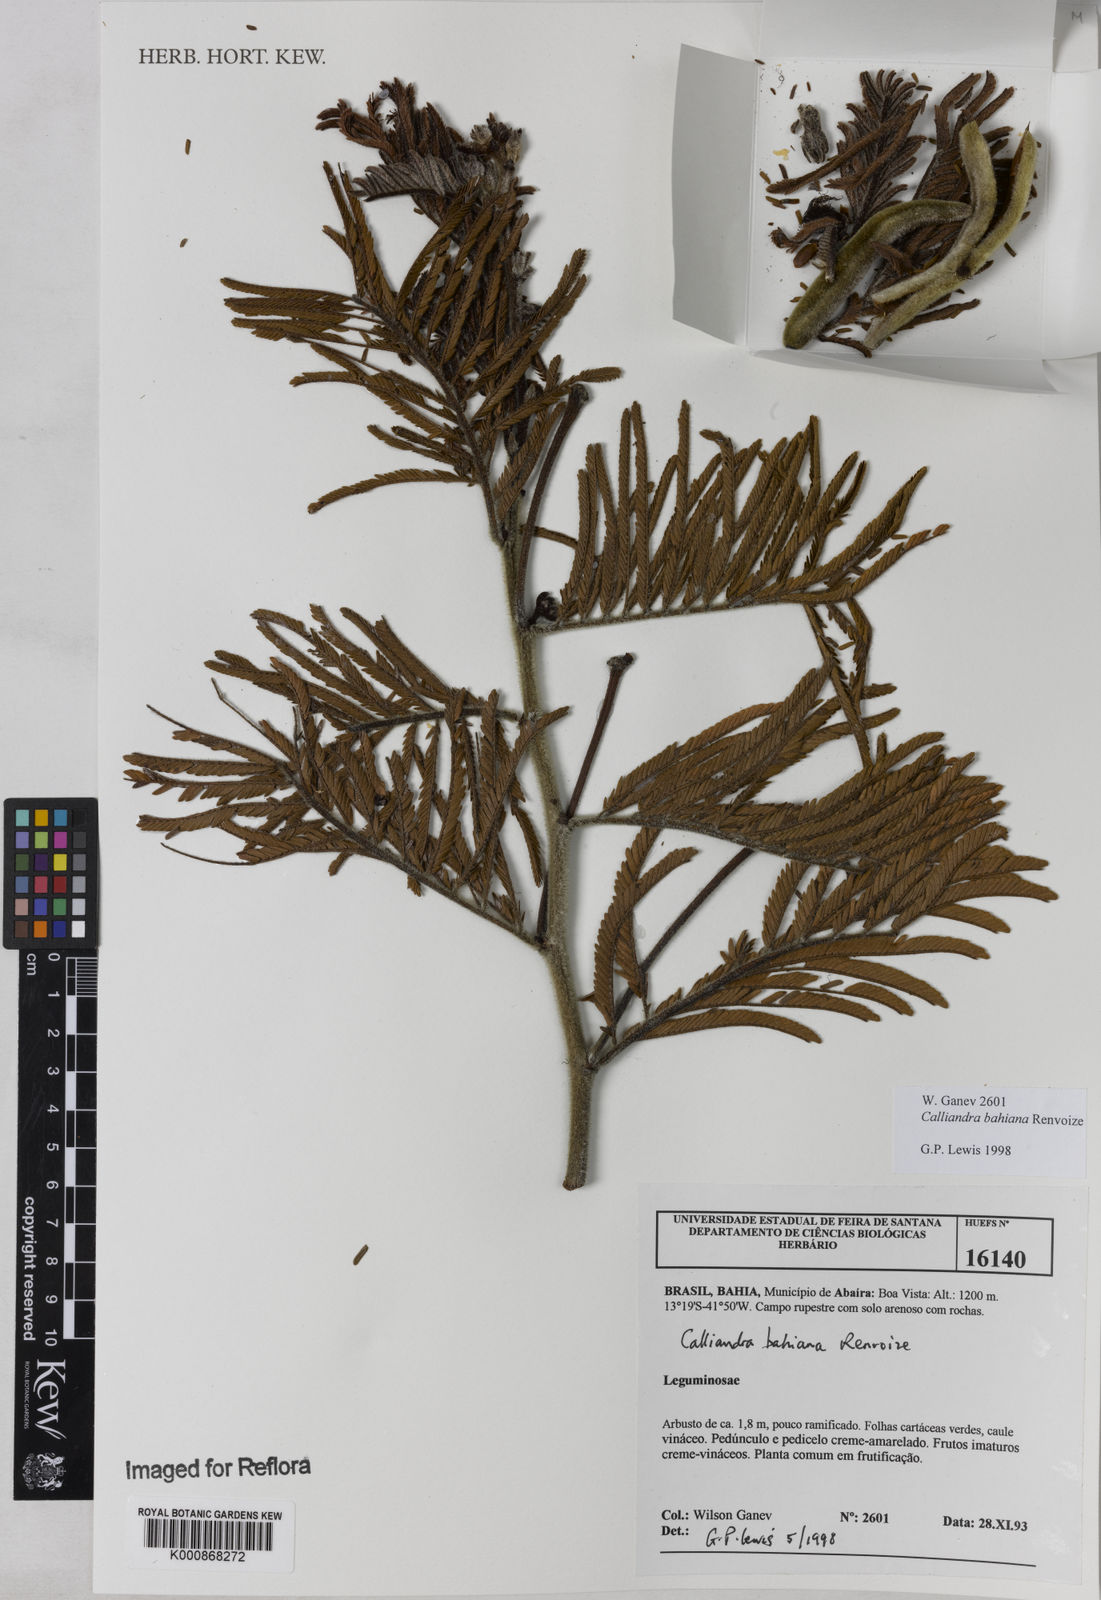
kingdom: Plantae
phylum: Tracheophyta
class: Magnoliopsida
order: Fabales
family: Fabaceae
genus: Calliandra
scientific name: Calliandra bahiana
